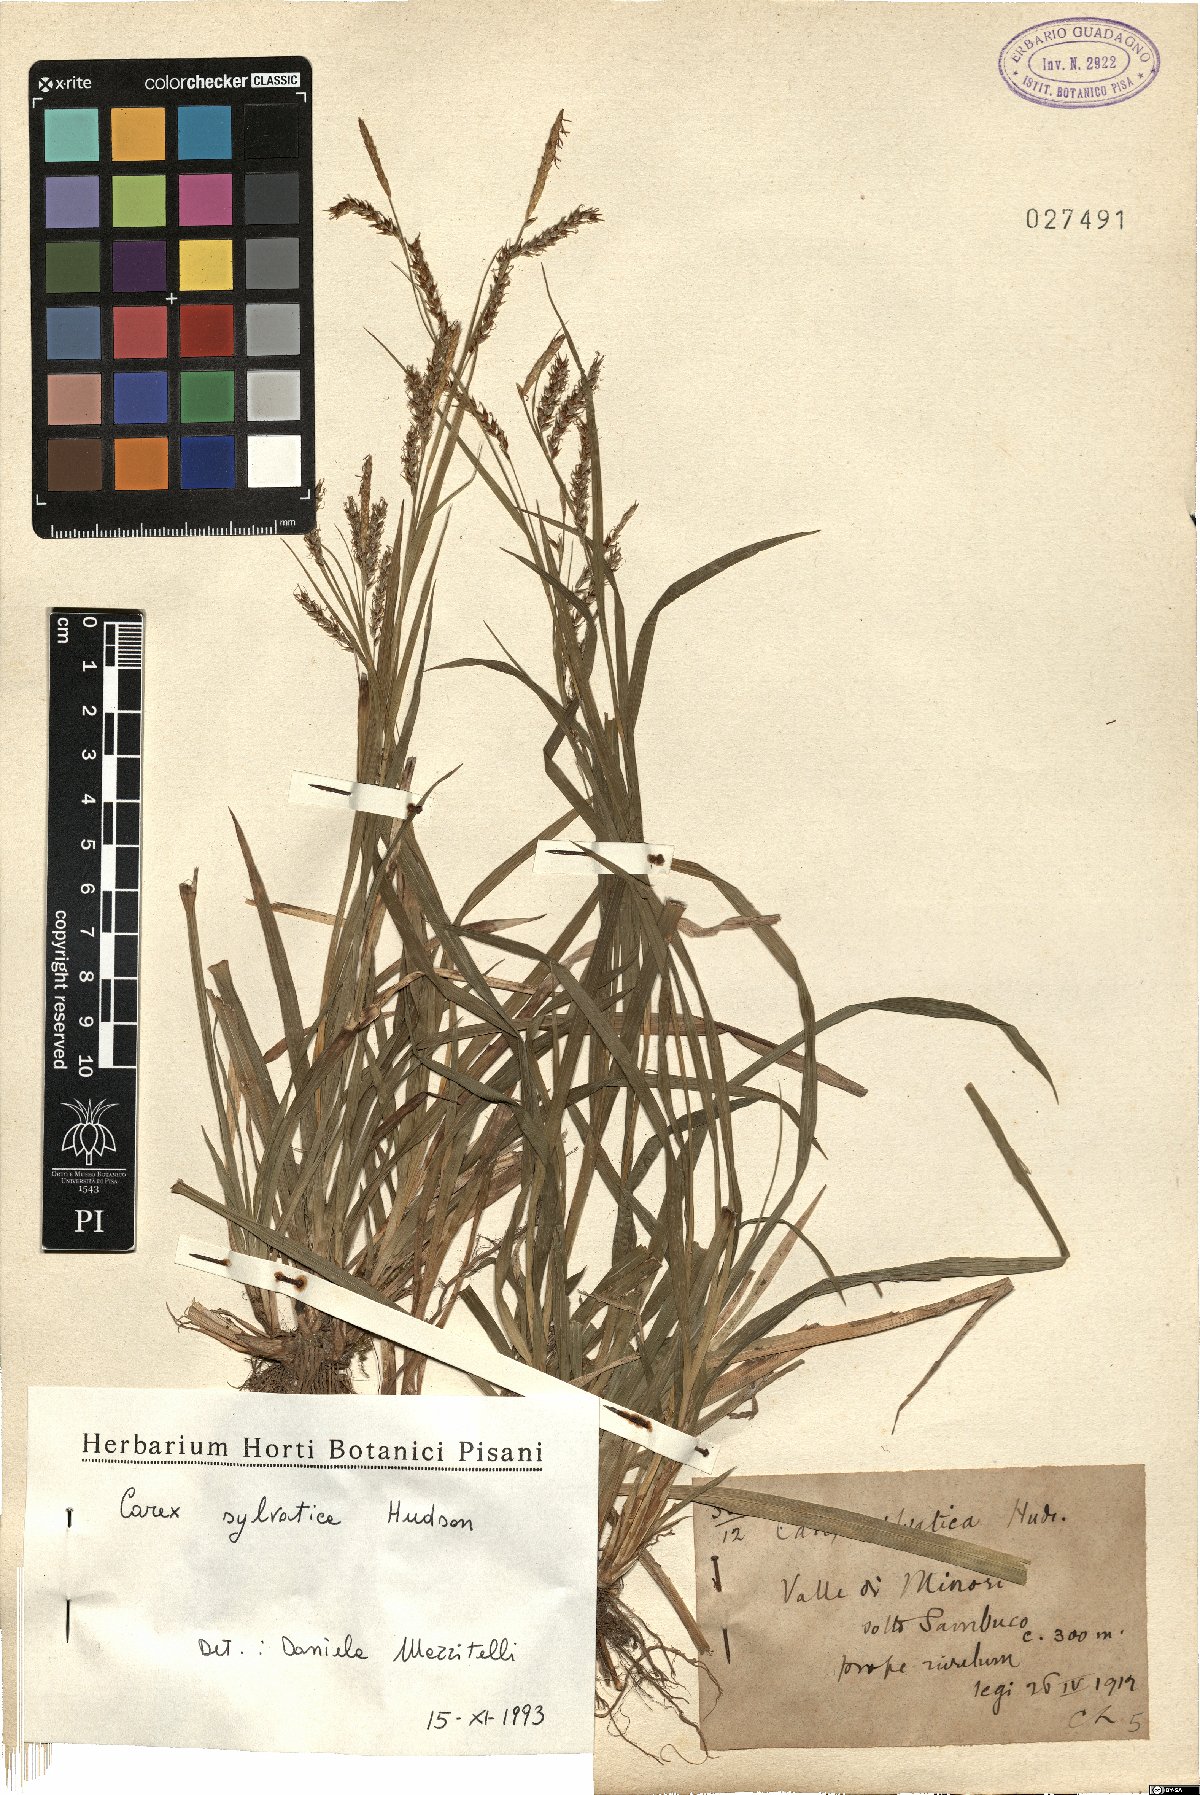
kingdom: Plantae
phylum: Tracheophyta
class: Liliopsida
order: Poales
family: Cyperaceae
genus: Carex
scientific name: Carex sylvatica
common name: Wood-sedge
